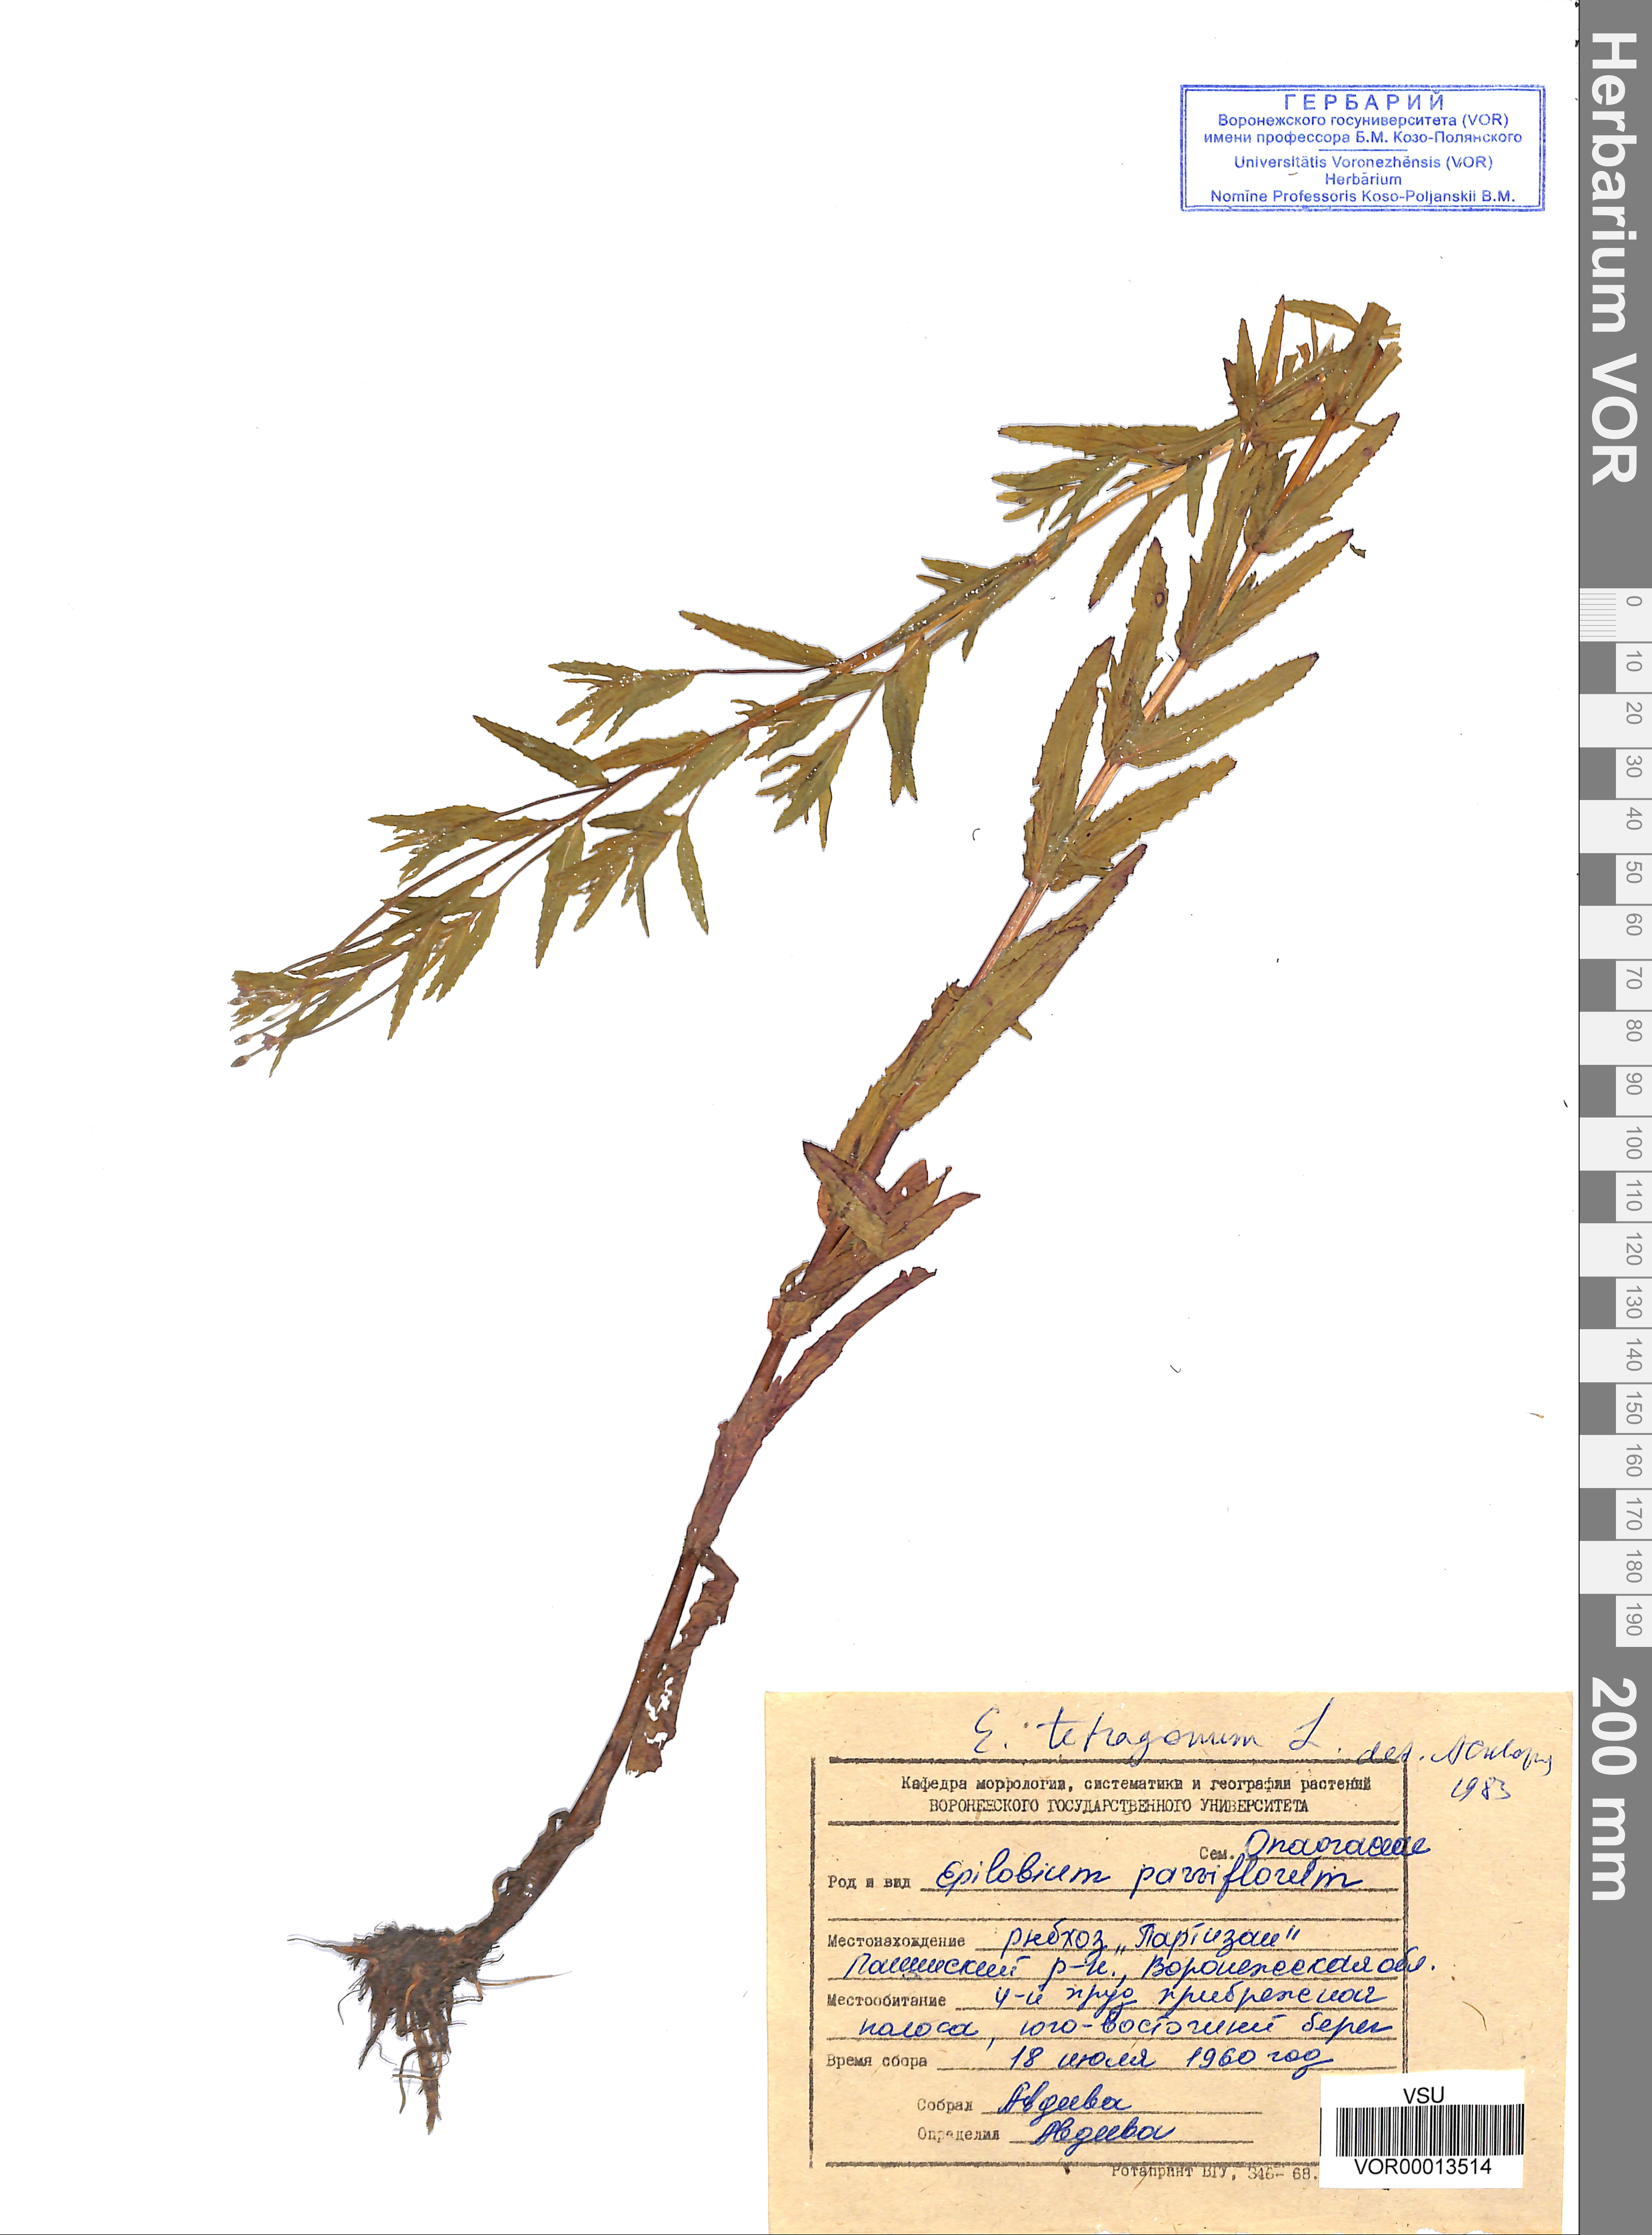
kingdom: Plantae
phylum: Tracheophyta
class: Magnoliopsida
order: Myrtales
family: Onagraceae
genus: Epilobium
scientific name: Epilobium tetragonum
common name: Square-stemmed willowherb
